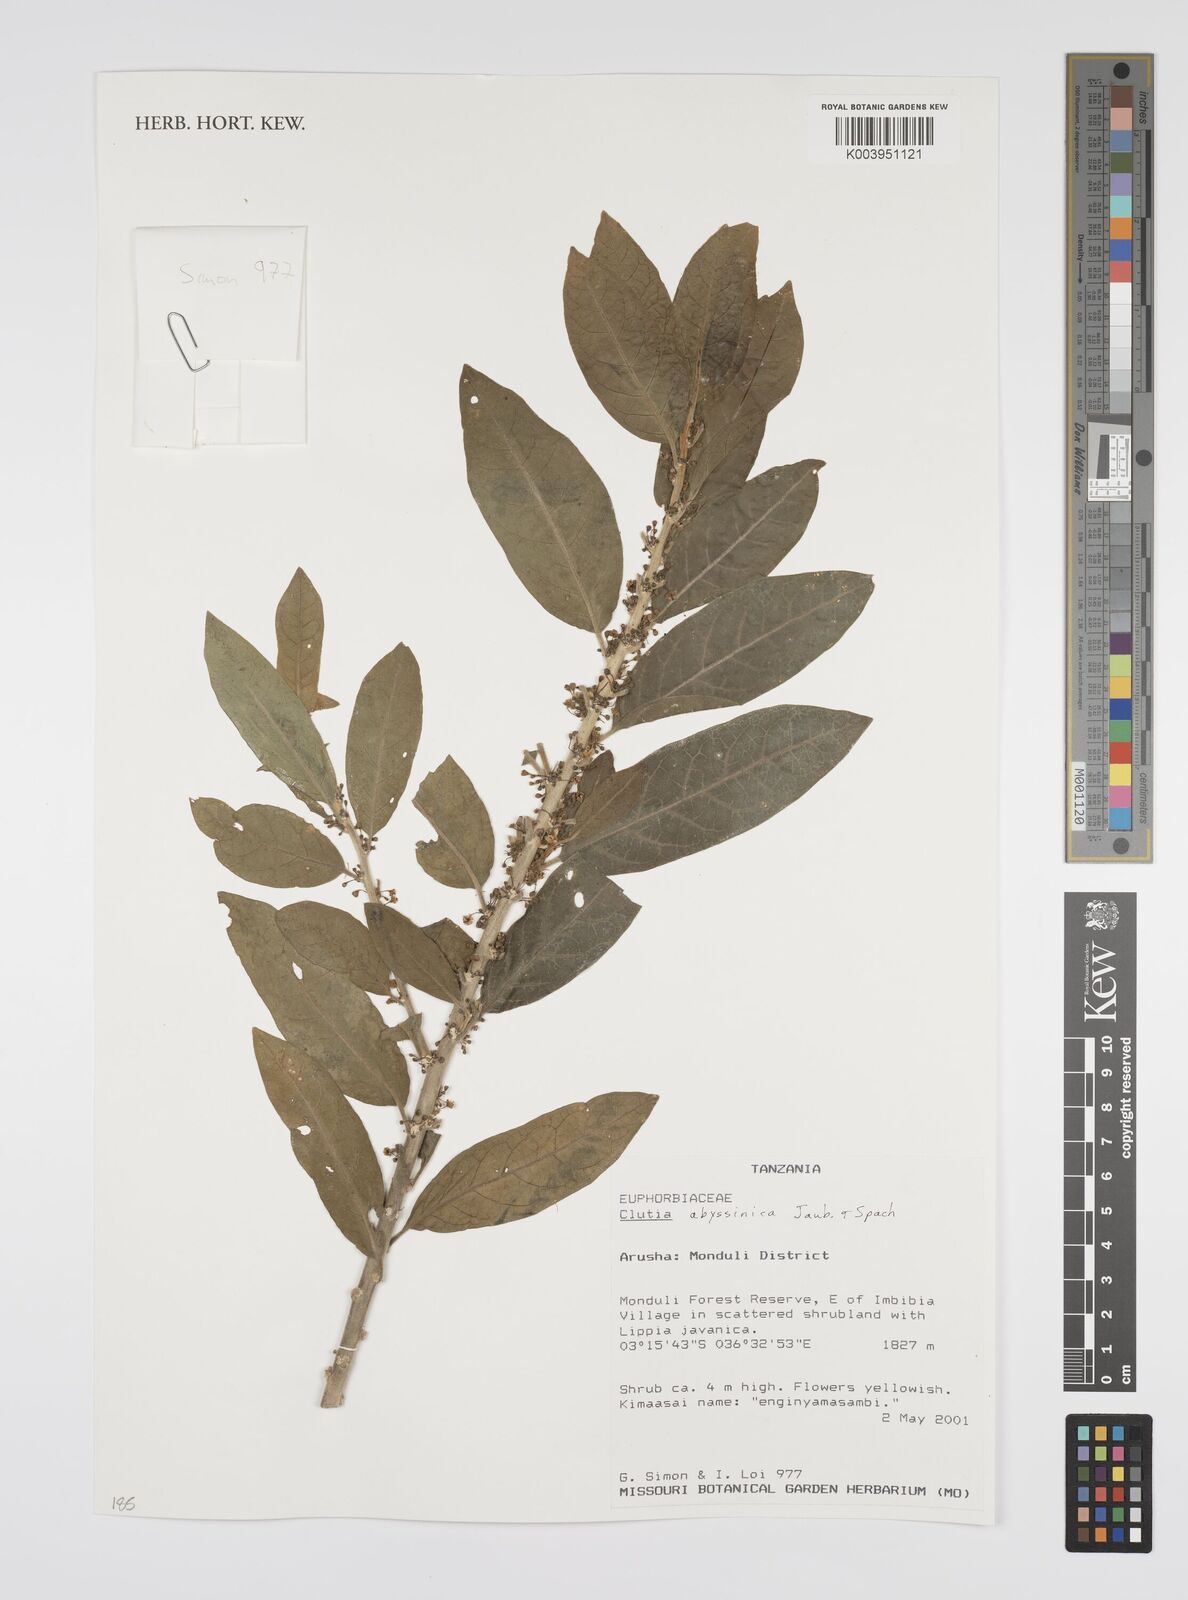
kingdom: Plantae
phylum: Tracheophyta
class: Magnoliopsida
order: Malpighiales
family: Peraceae
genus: Clutia
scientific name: Clutia abyssinica
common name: Large lightning bush
